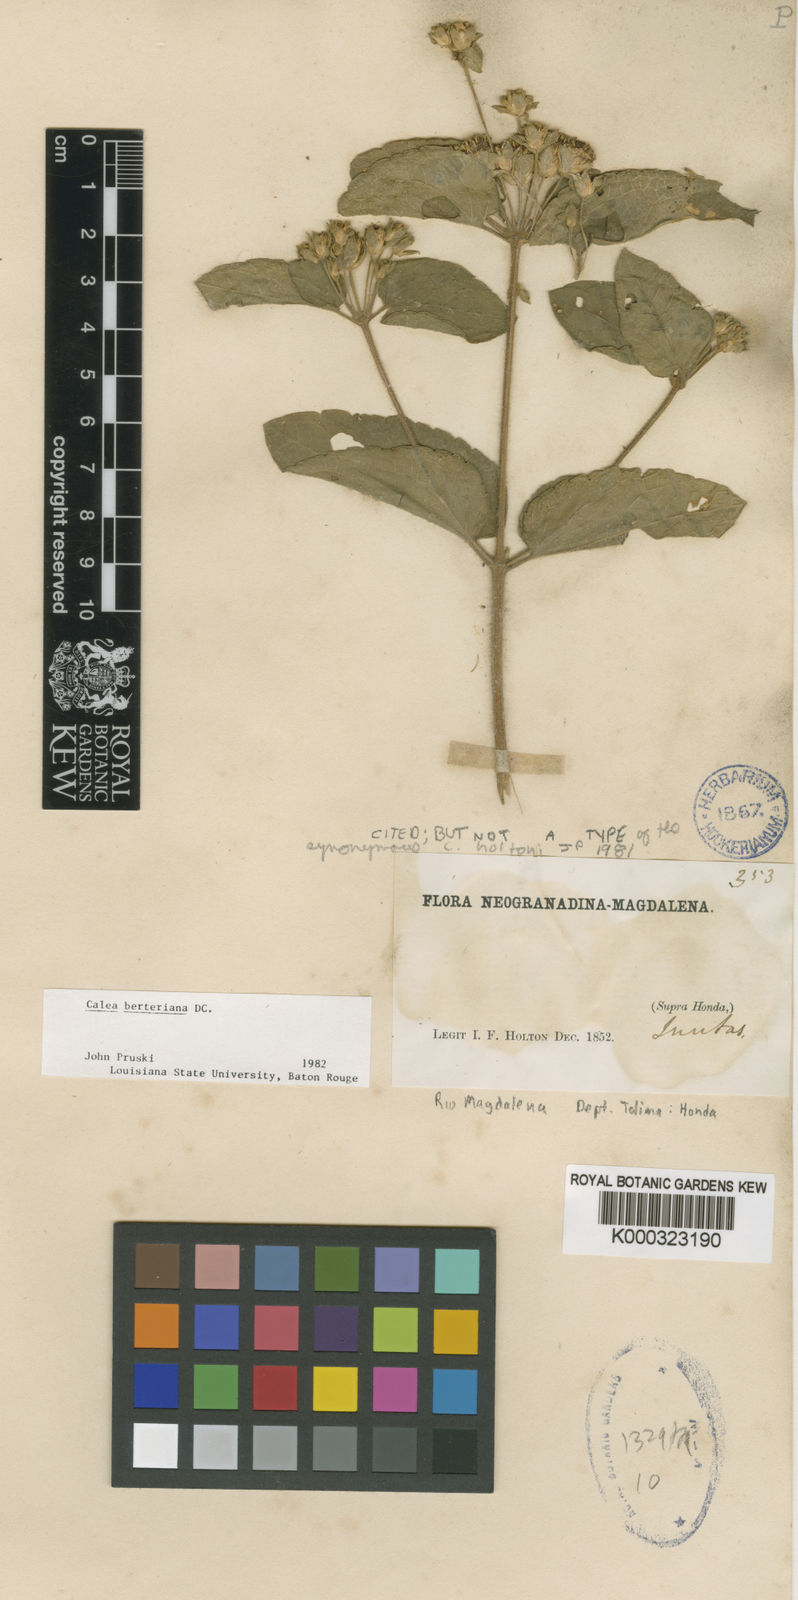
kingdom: Plantae
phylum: Tracheophyta
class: Magnoliopsida
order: Asterales
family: Asteraceae
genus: Calea
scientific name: Calea
